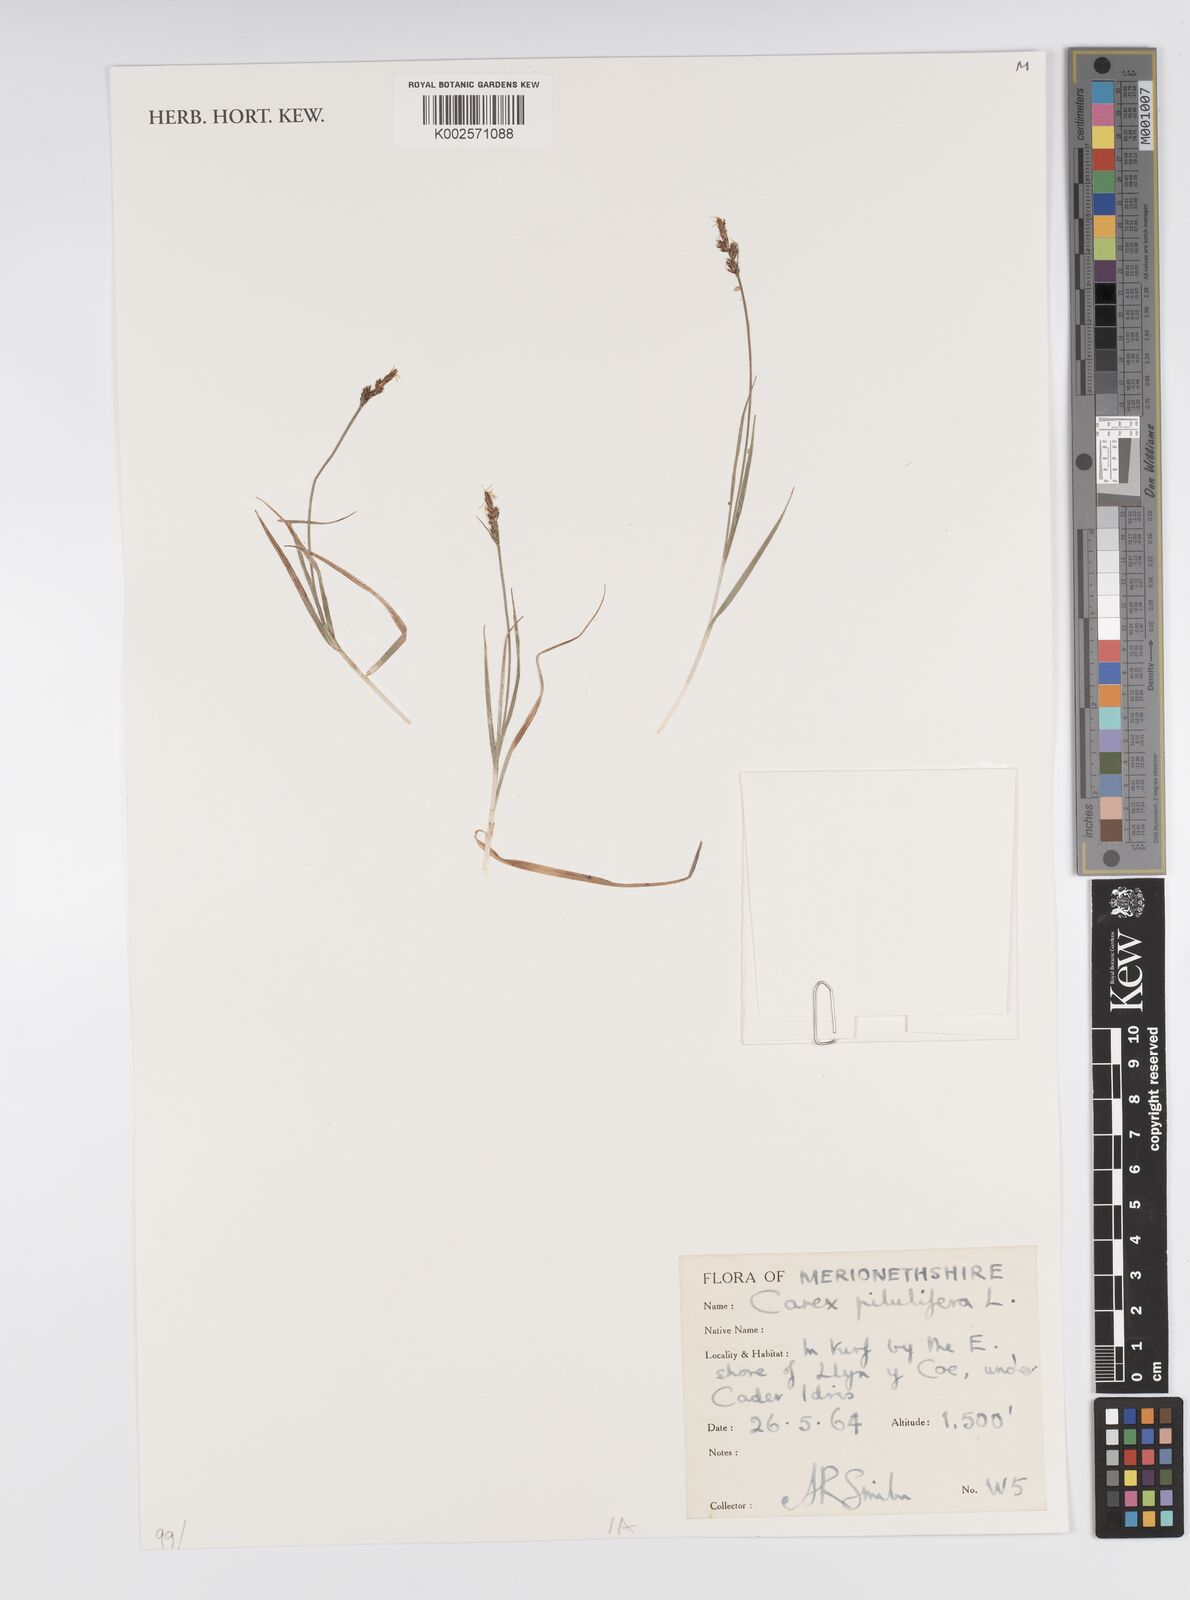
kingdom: Plantae
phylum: Tracheophyta
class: Liliopsida
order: Poales
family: Cyperaceae
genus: Carex
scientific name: Carex pilulifera
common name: Pill sedge
